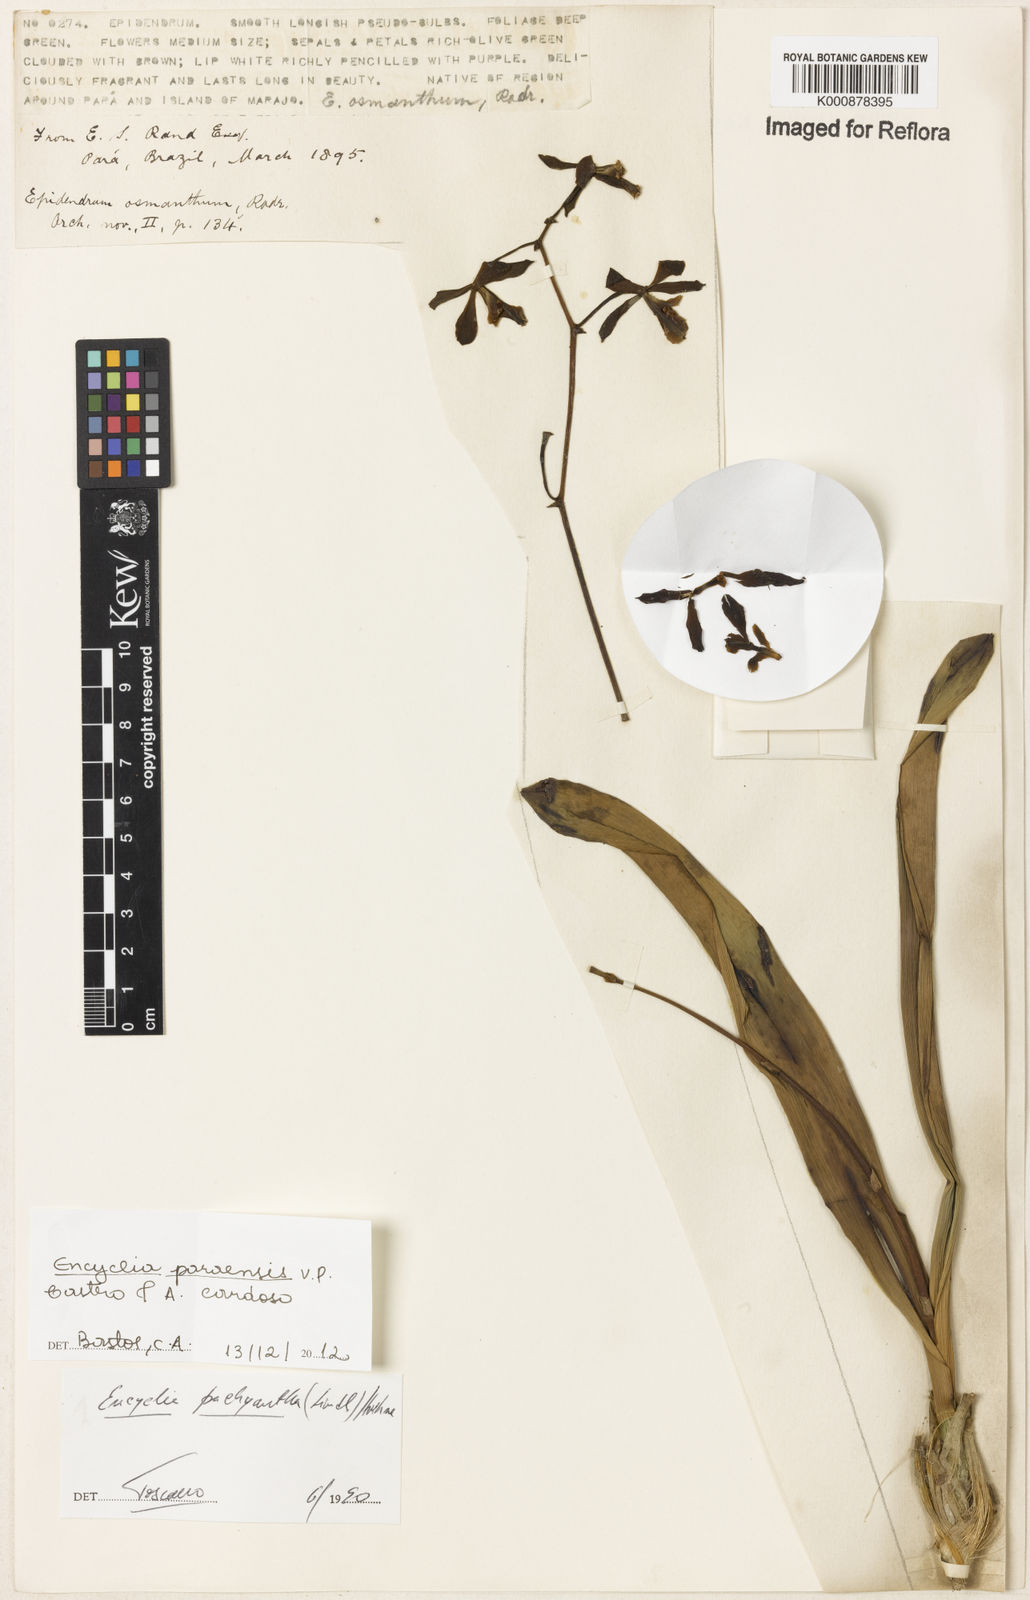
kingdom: Plantae
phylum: Tracheophyta
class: Liliopsida
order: Asparagales
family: Orchidaceae
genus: Encyclia
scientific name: Encyclia pachyantha
